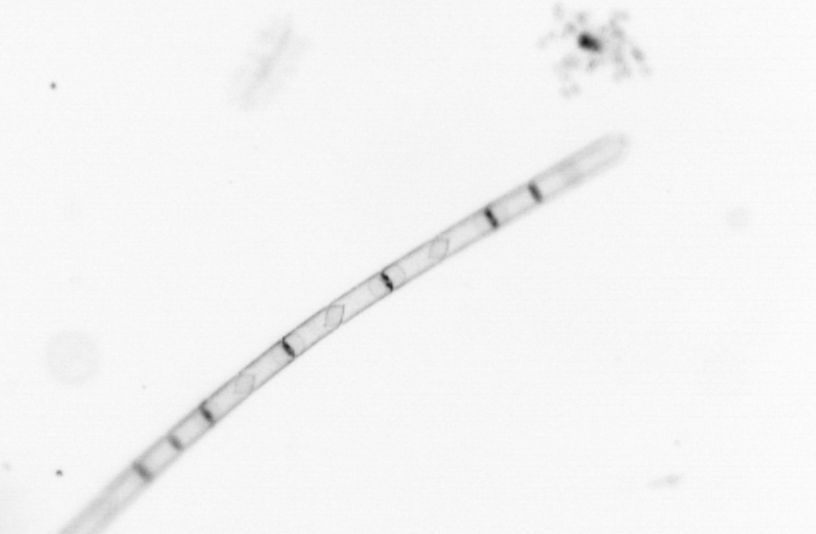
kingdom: Chromista
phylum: Ochrophyta
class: Bacillariophyceae
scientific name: Bacillariophyceae
